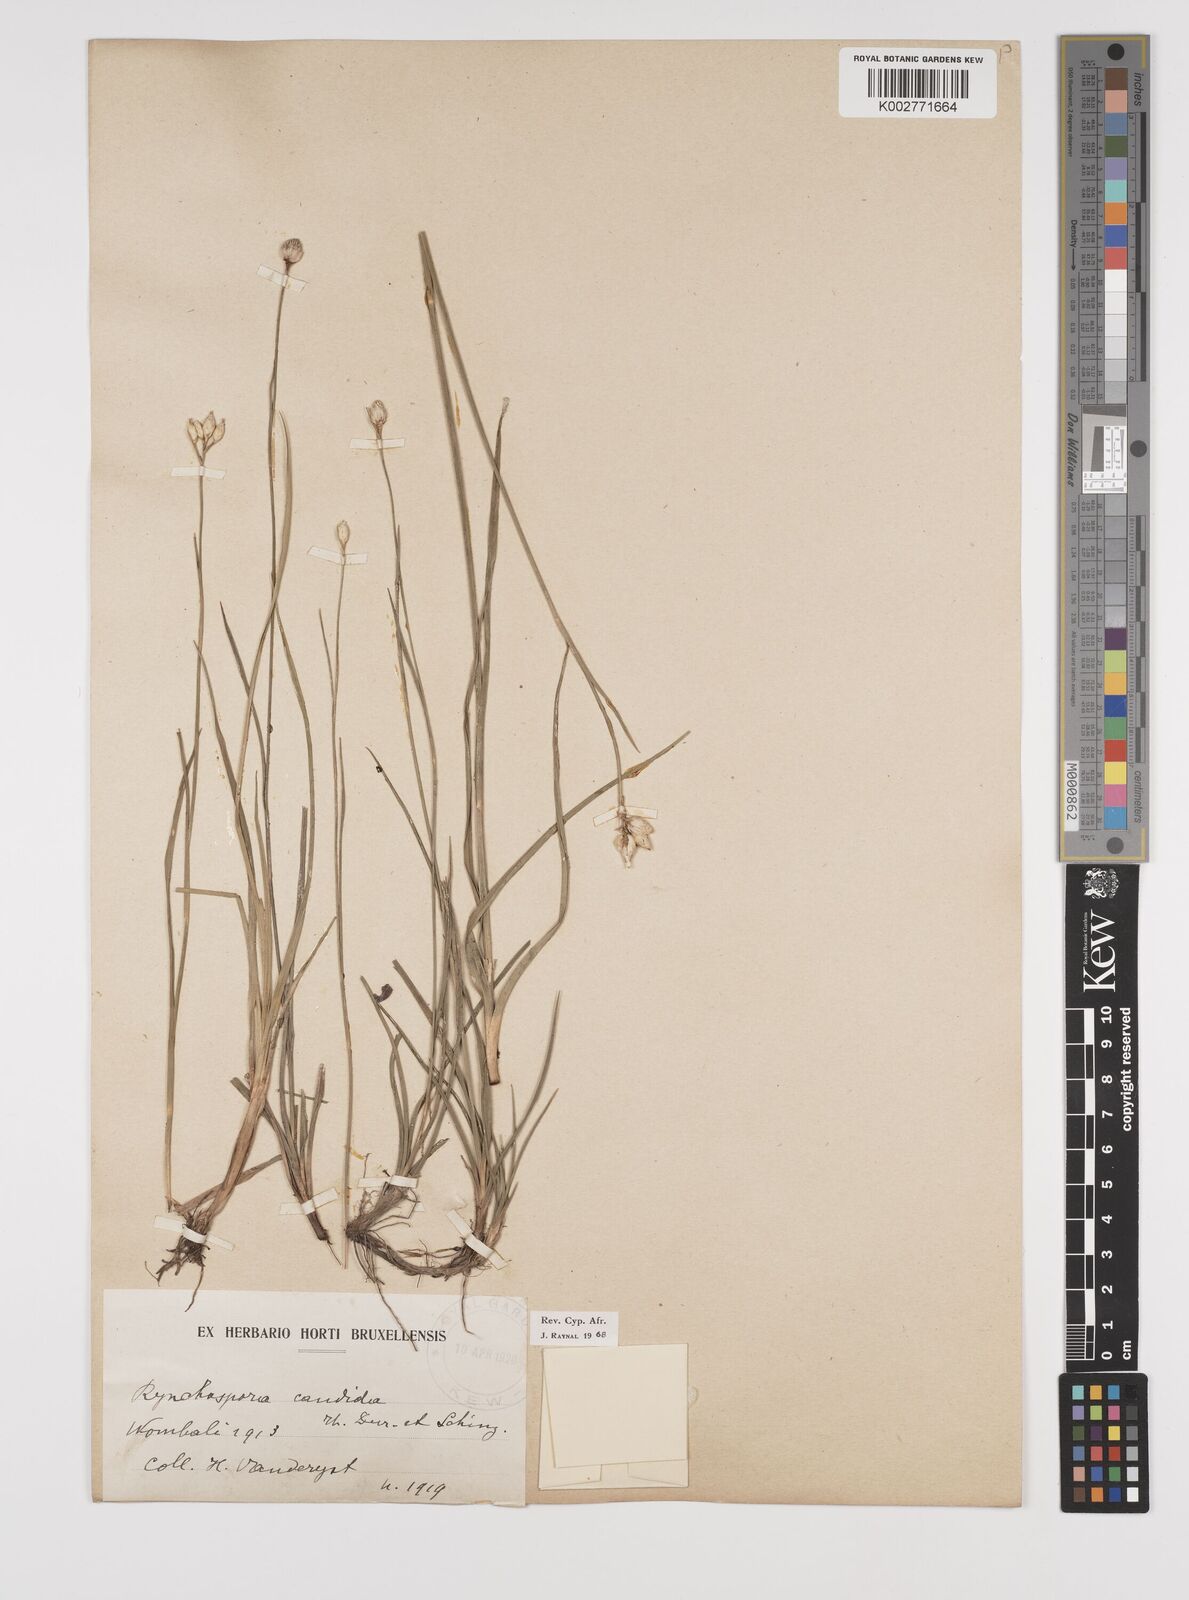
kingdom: Plantae
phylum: Tracheophyta
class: Liliopsida
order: Poales
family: Cyperaceae
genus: Rhynchospora
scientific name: Rhynchospora candida
